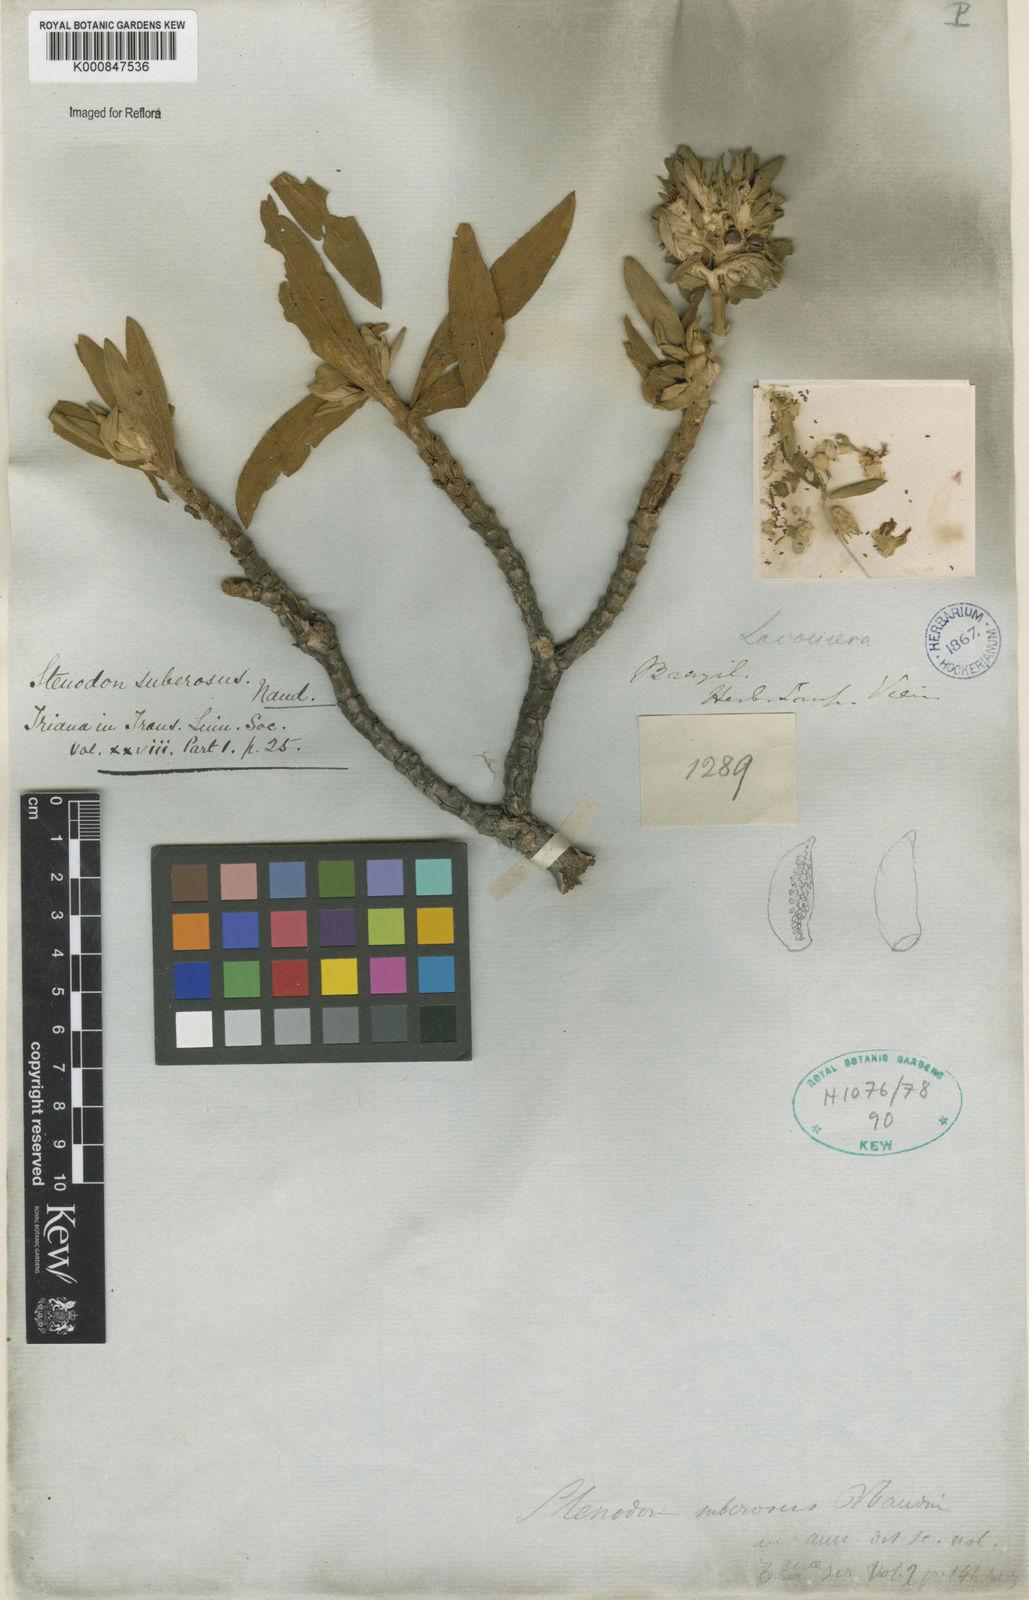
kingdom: Plantae
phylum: Tracheophyta
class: Magnoliopsida
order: Myrtales
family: Melastomataceae
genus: Microlicia
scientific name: Microlicia suberosa
